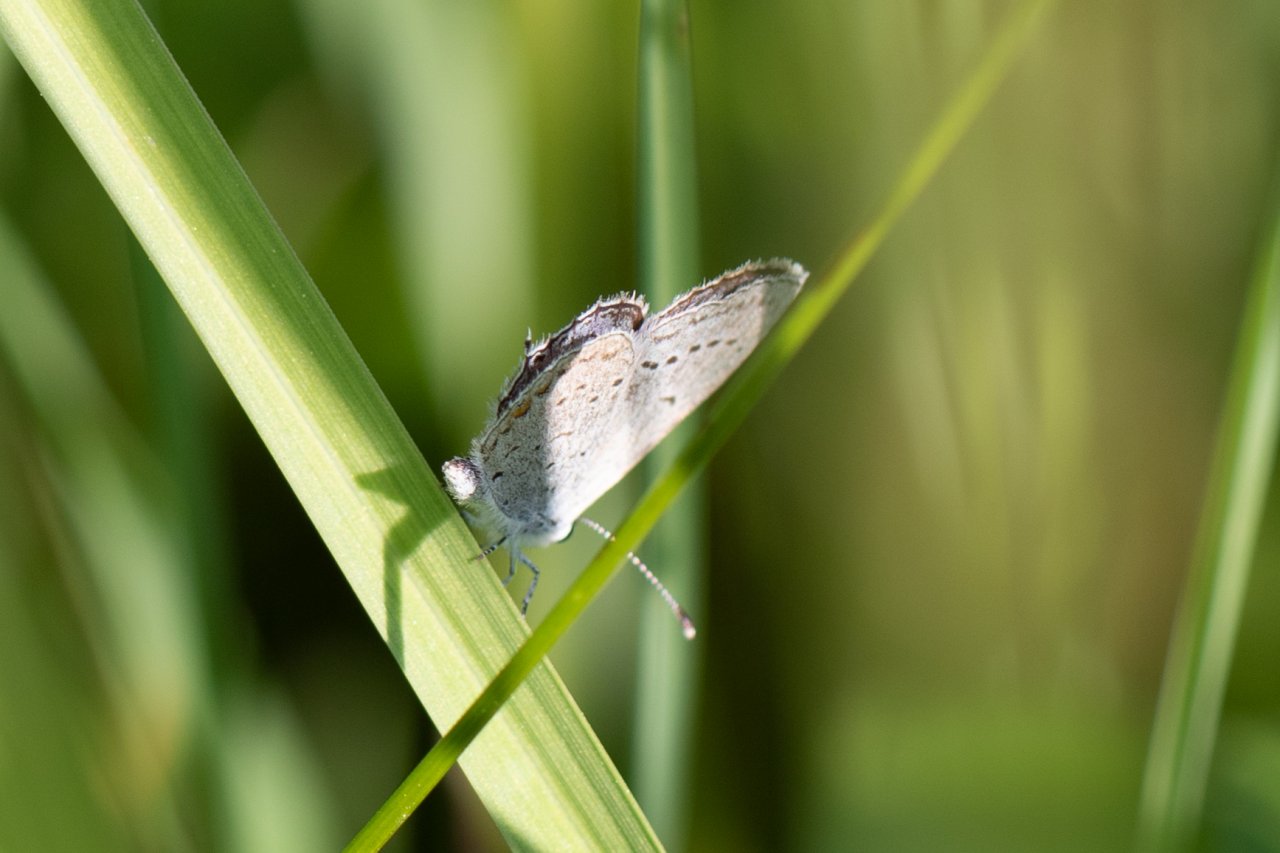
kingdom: Animalia
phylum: Arthropoda
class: Insecta
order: Lepidoptera
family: Lycaenidae
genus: Elkalyce
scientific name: Elkalyce comyntas
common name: Eastern Tailed-Blue
